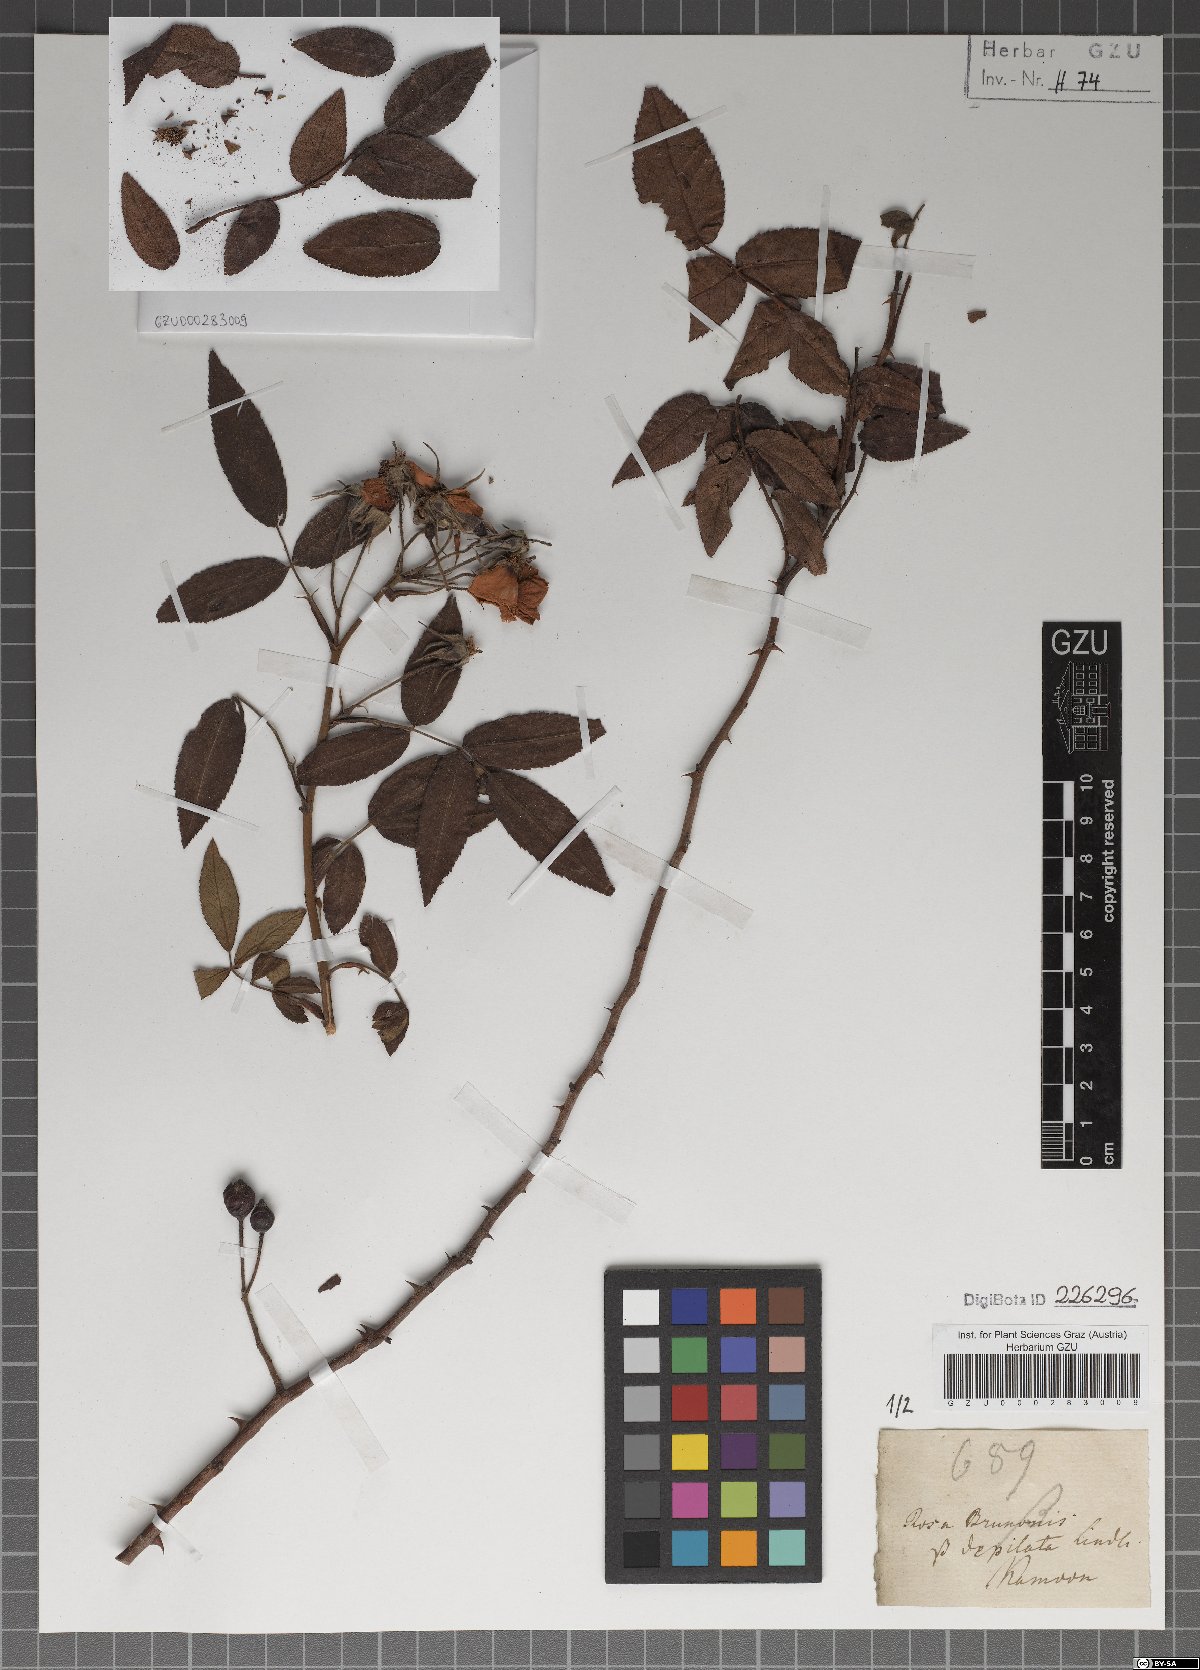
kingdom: Plantae
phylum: Tracheophyta
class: Magnoliopsida
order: Rosales
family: Rosaceae
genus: Rosa
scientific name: Rosa brunonii
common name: Himalayan musk rose
